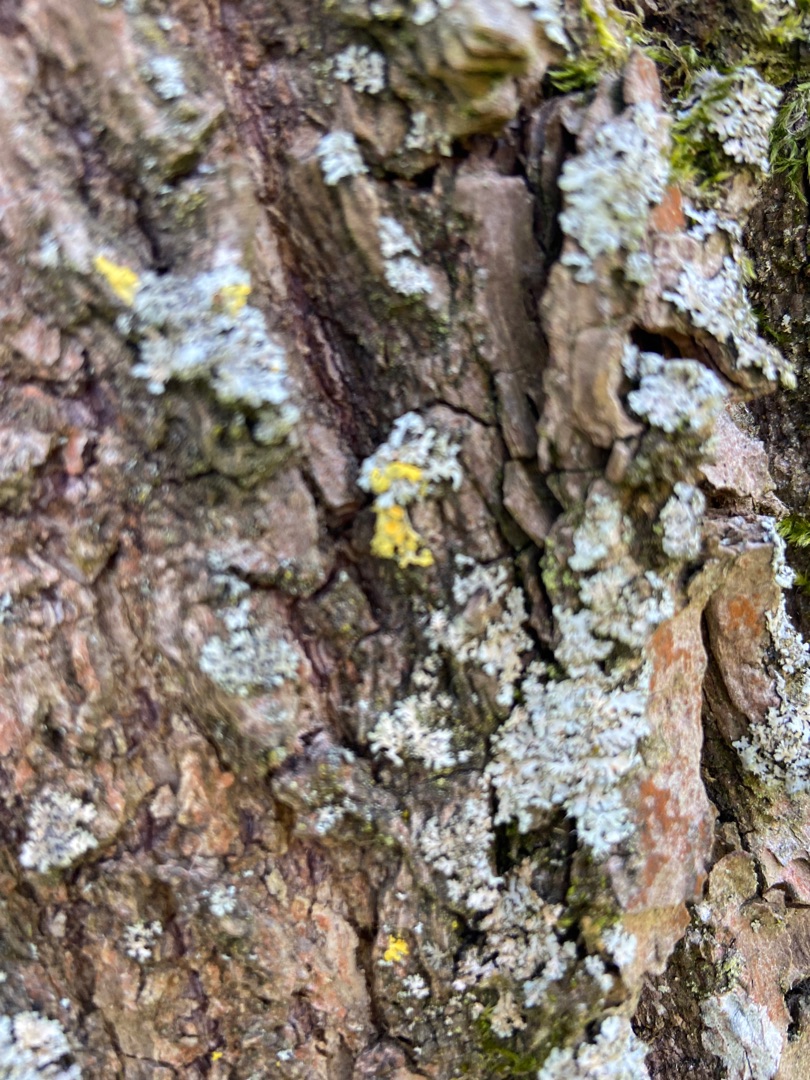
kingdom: Fungi
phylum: Ascomycota
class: Lecanoromycetes
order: Caliciales
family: Physciaceae
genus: Phaeophyscia
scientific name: Phaeophyscia orbicularis
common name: Grågrøn rosetlav
